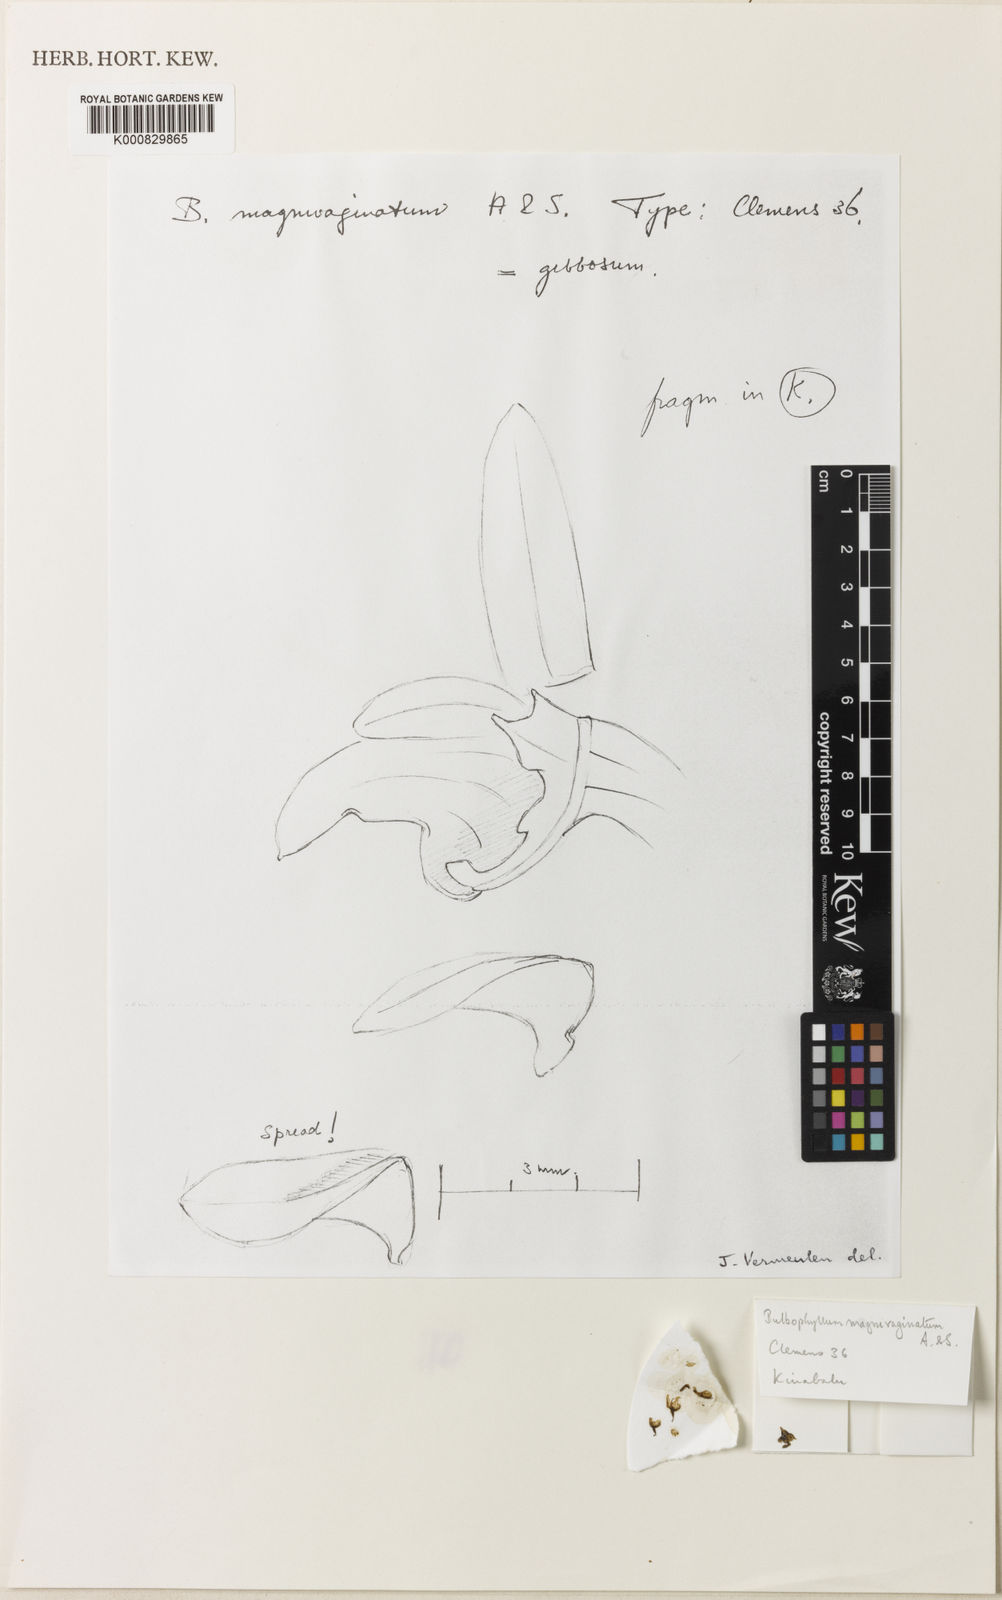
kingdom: Plantae
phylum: Tracheophyta
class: Liliopsida
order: Asparagales
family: Orchidaceae
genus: Bulbophyllum
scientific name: Bulbophyllum gibbosum
